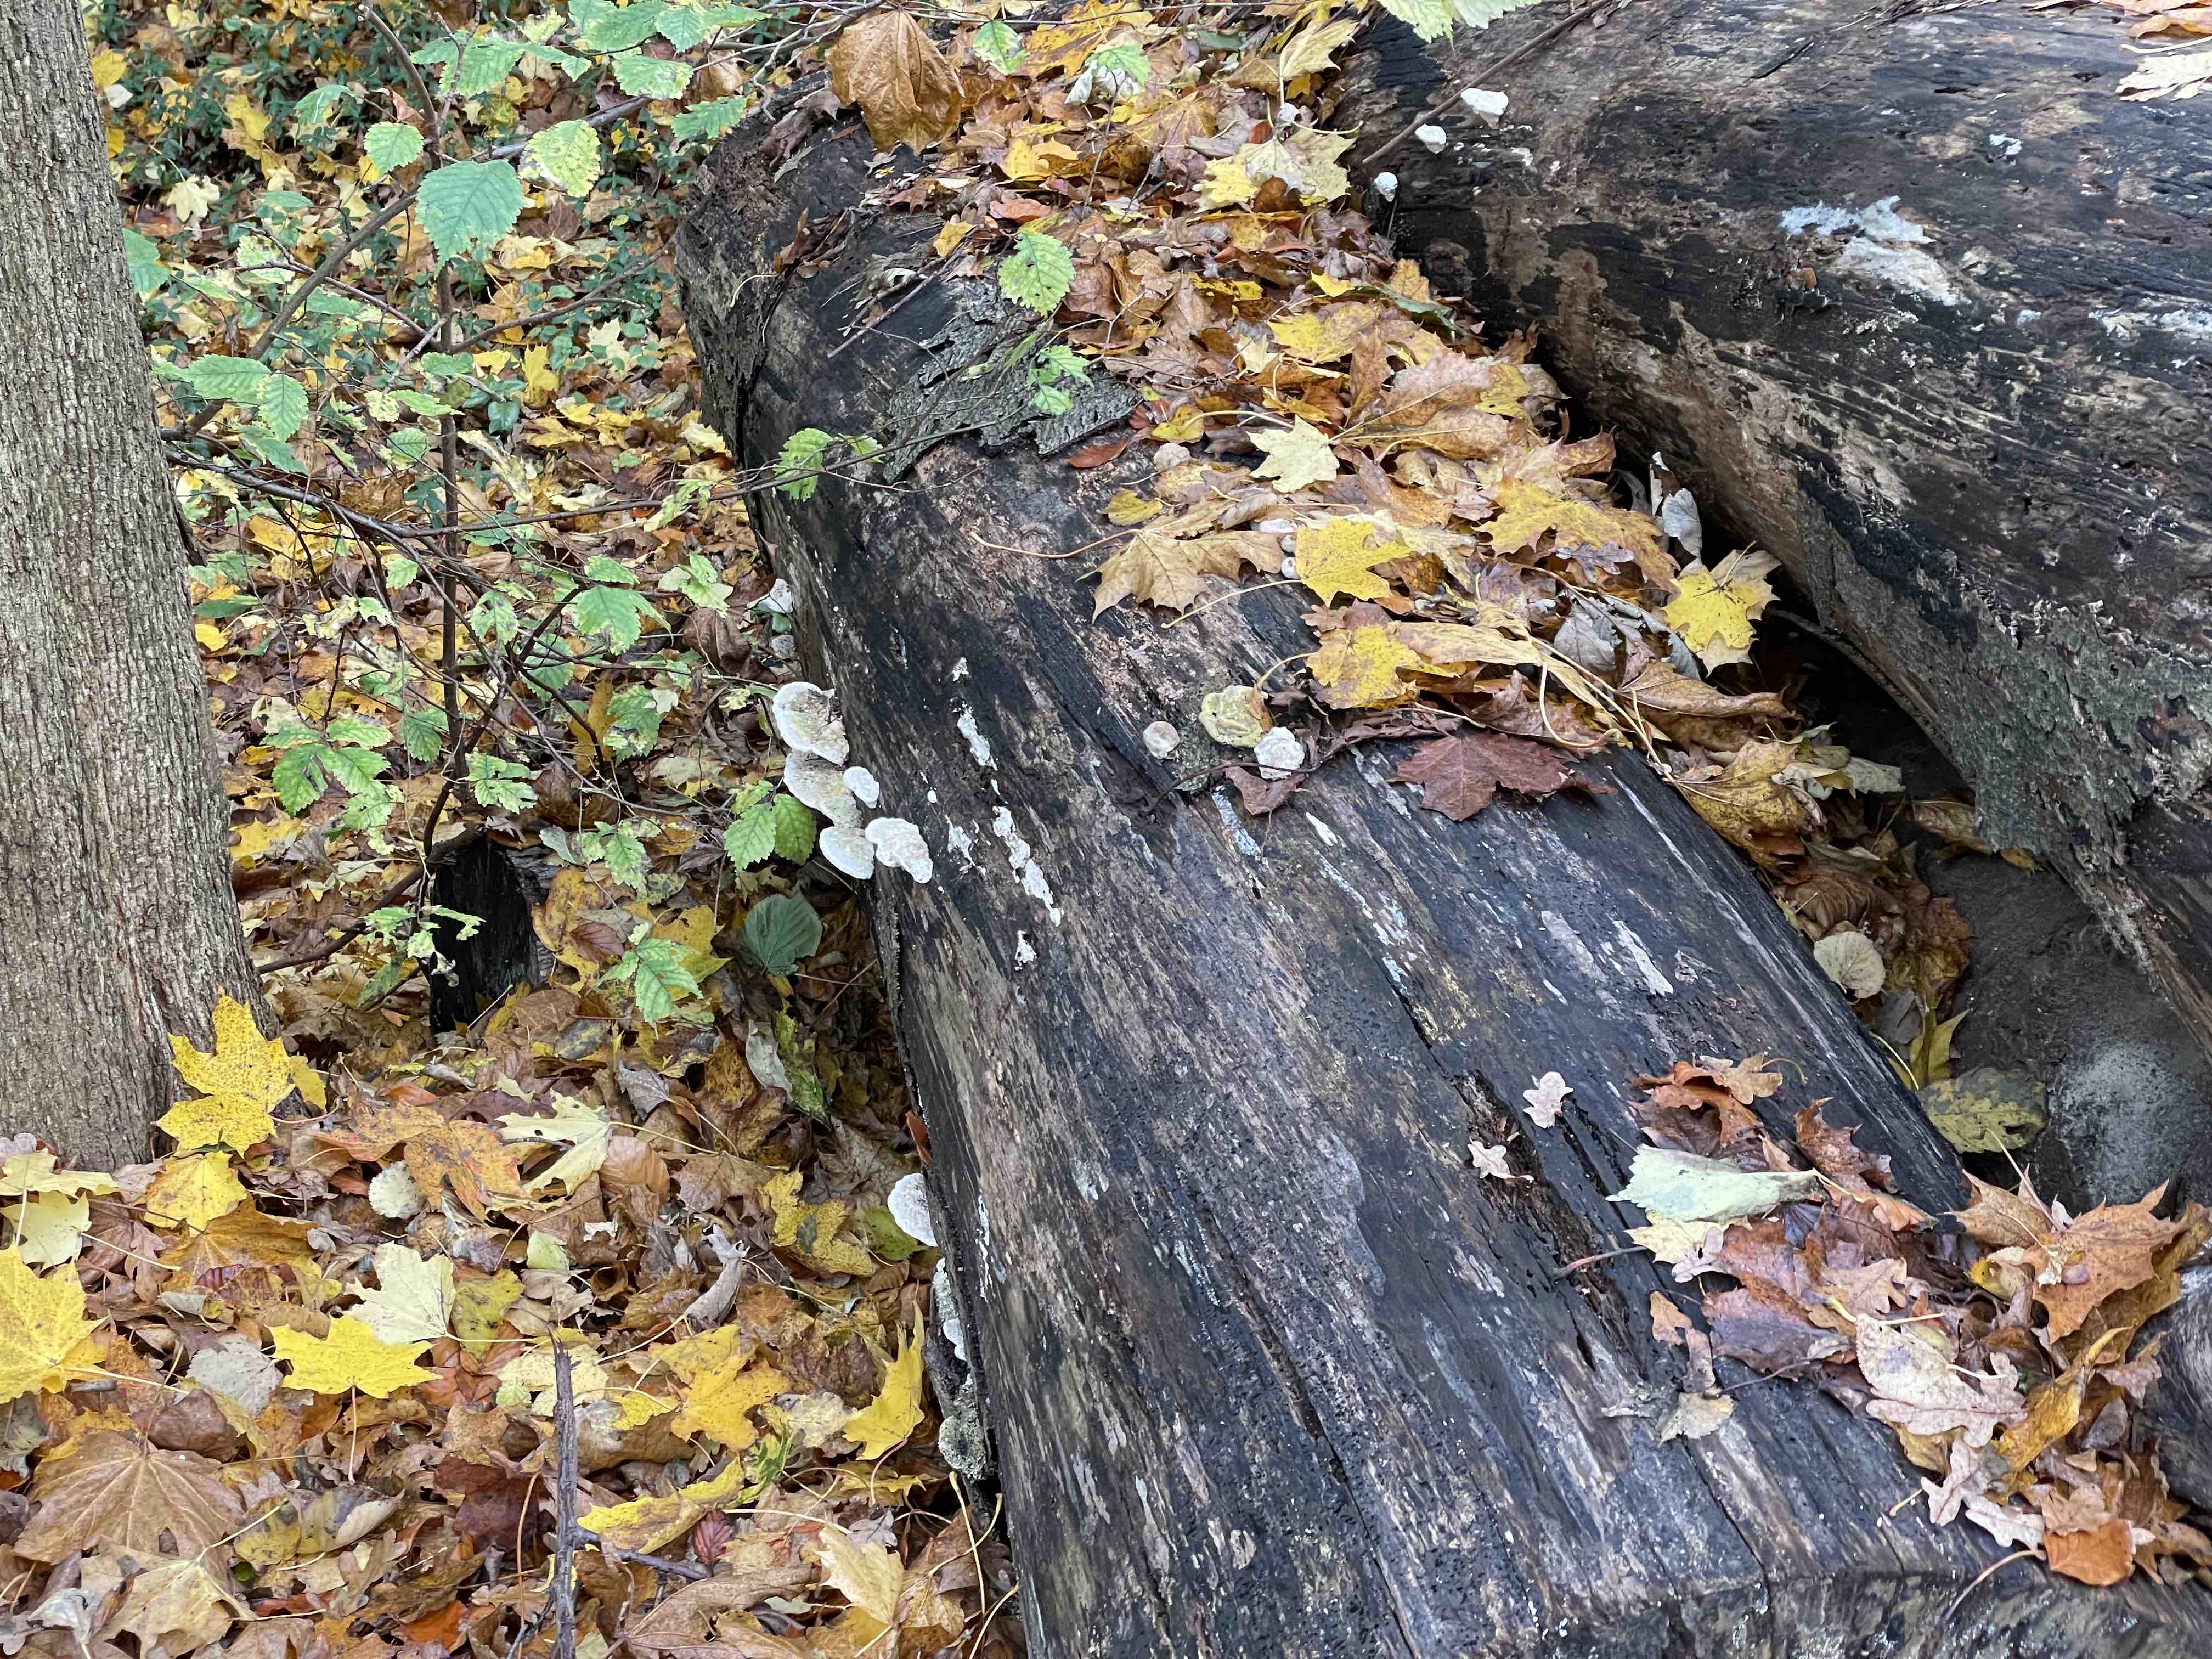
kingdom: Fungi
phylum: Basidiomycota
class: Agaricomycetes
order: Polyporales
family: Polyporaceae
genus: Trametes
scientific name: Trametes gibbosa
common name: puklet læderporesvamp
